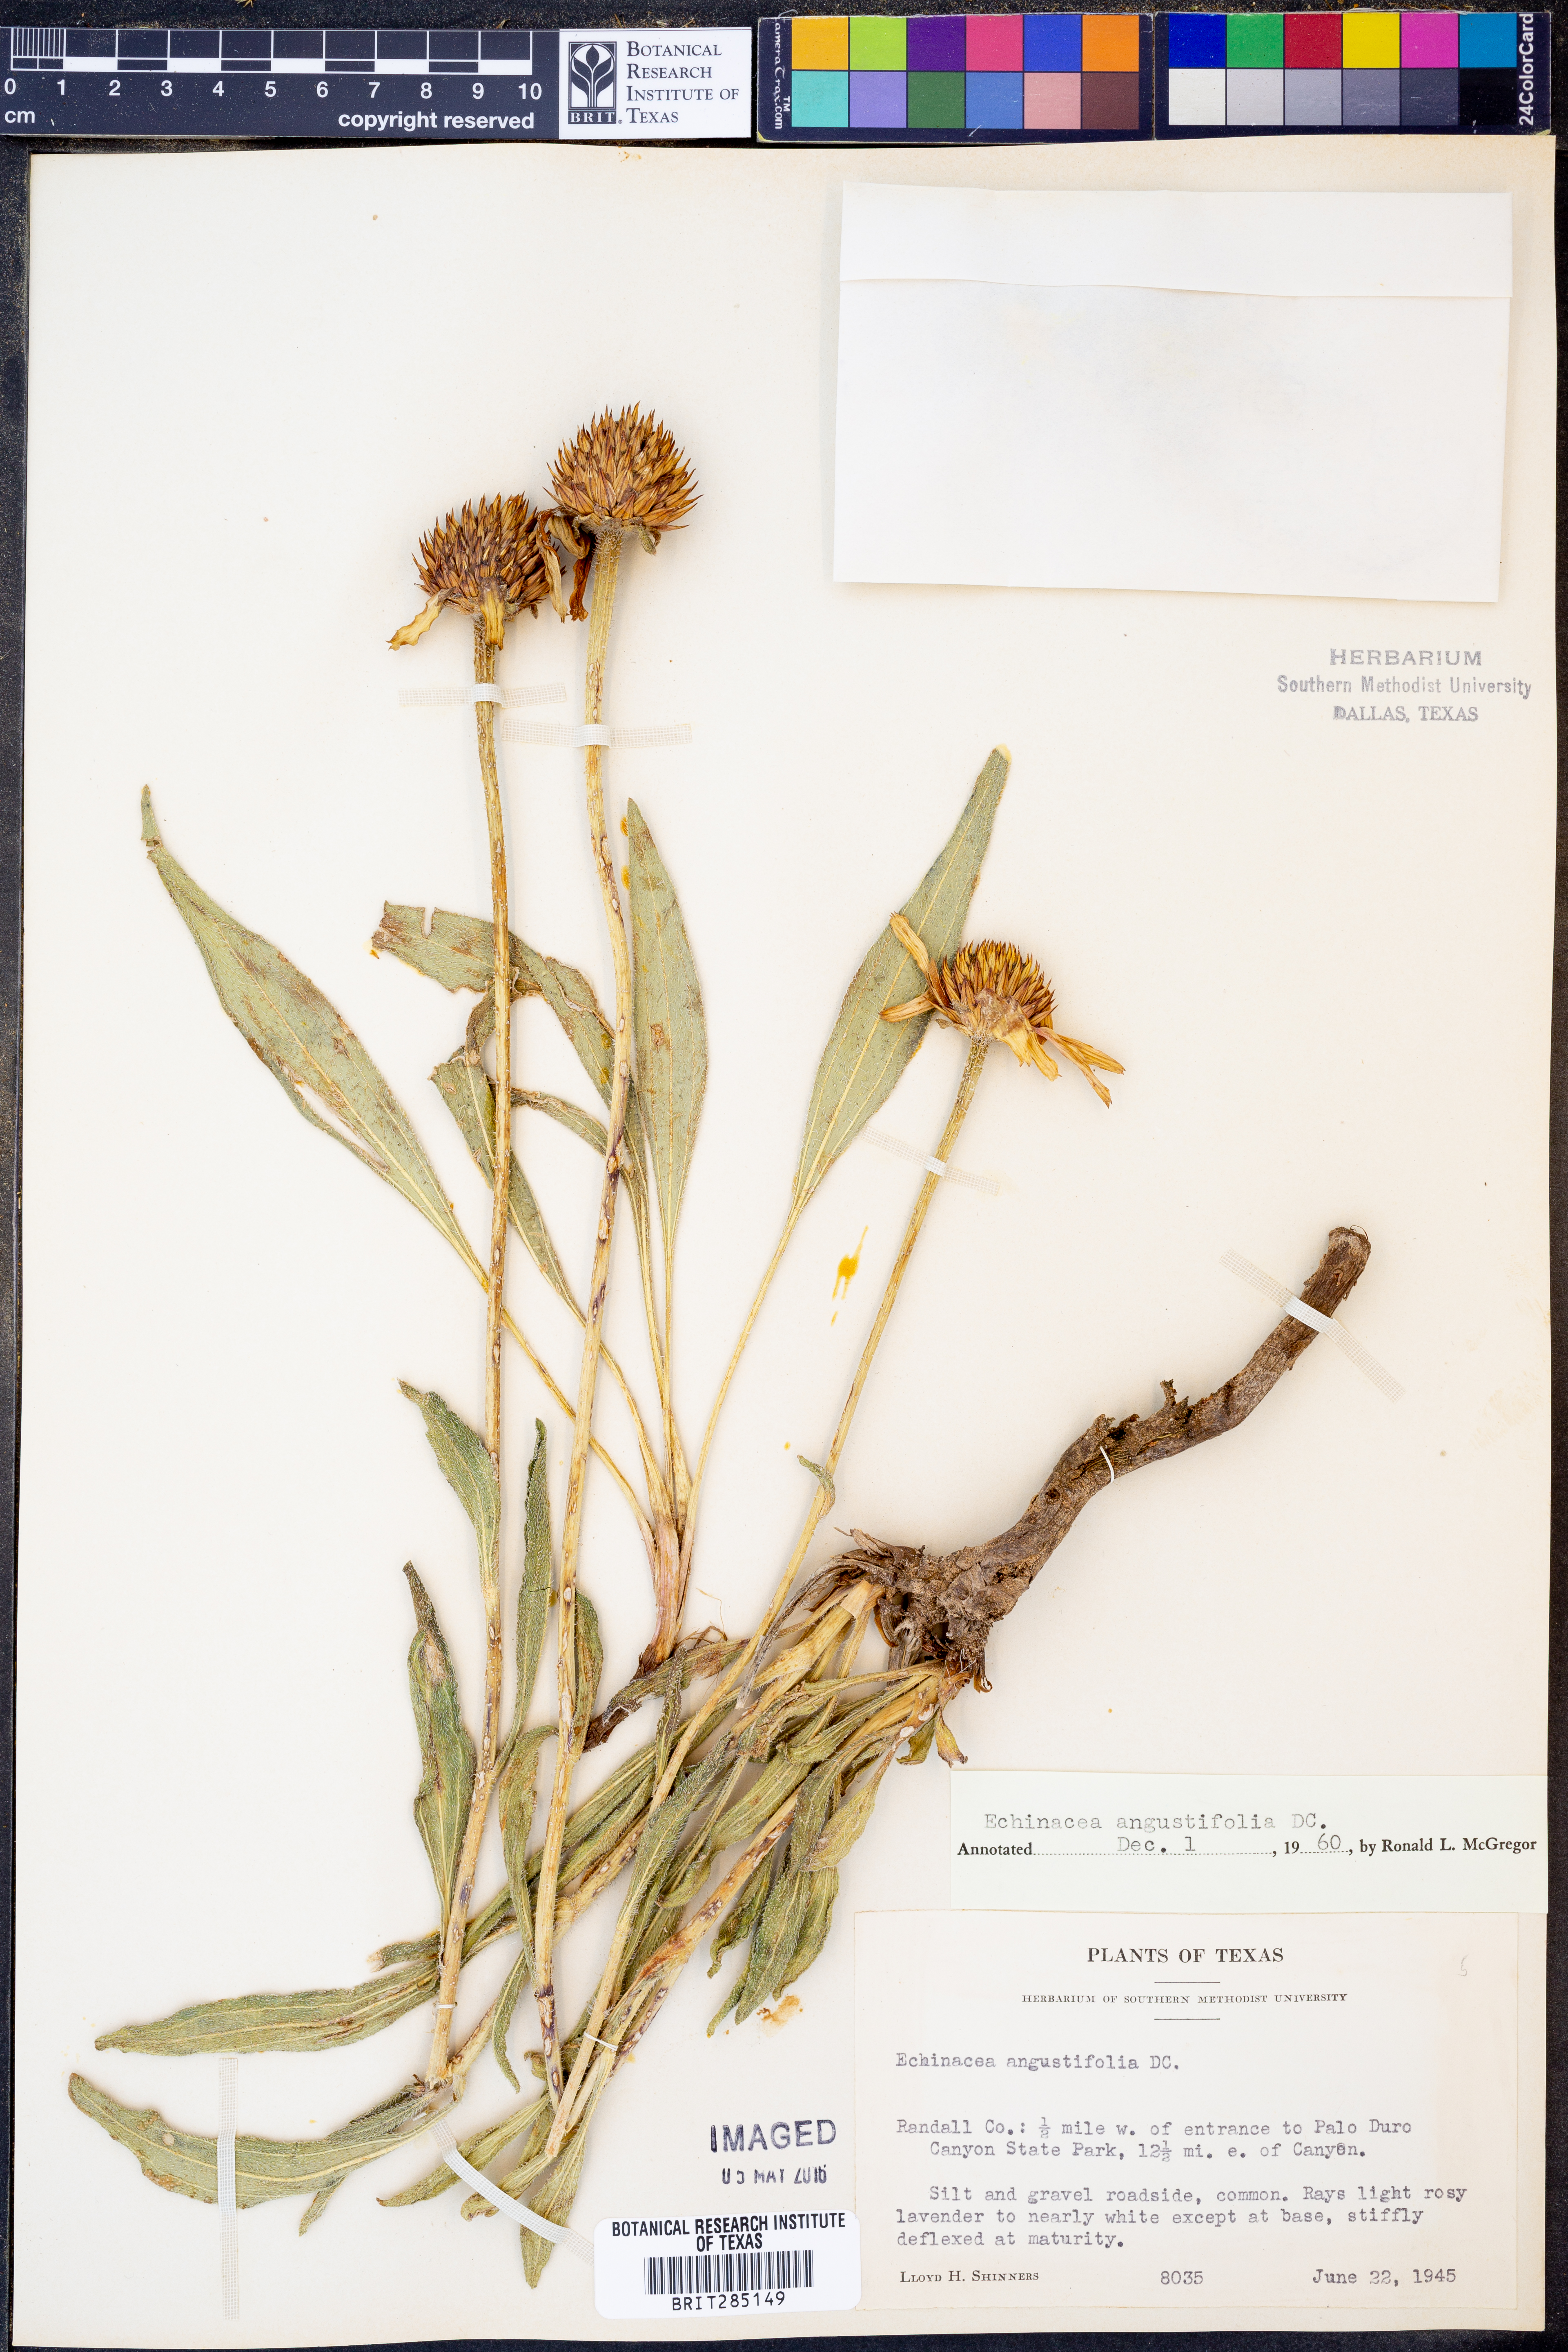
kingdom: Plantae
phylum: Tracheophyta
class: Magnoliopsida
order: Asterales
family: Asteraceae
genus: Echinacea
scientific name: Echinacea angustifolia
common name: Black-sampson echinacea
